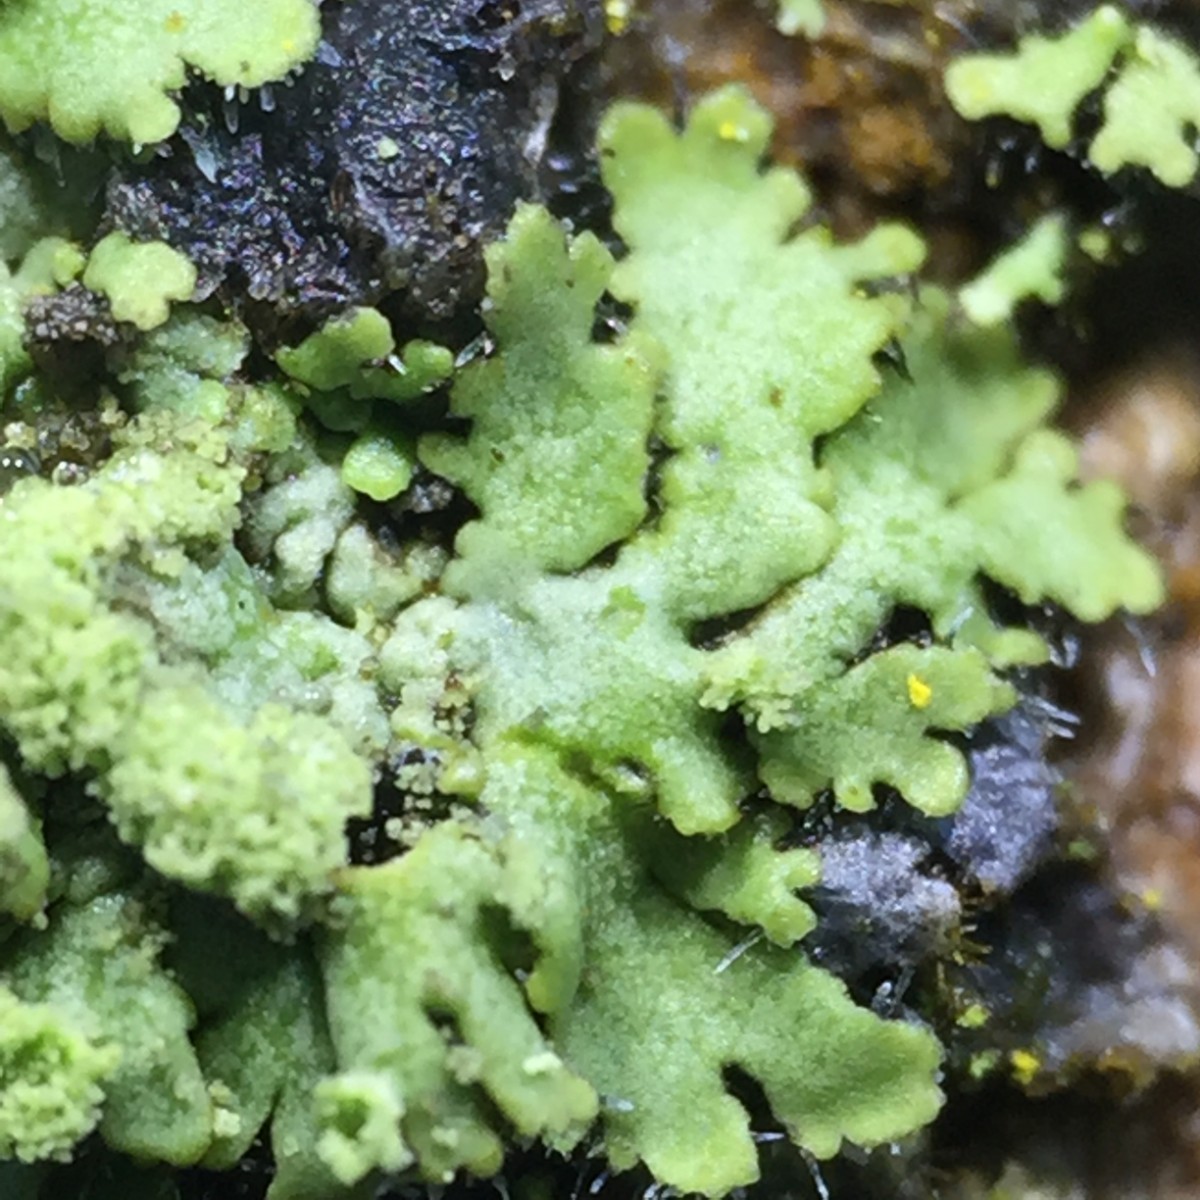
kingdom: Fungi
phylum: Ascomycota
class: Lecanoromycetes
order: Caliciales
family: Physciaceae
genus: Phaeophyscia
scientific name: Phaeophyscia orbicularis
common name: grågrøn rosetlav
